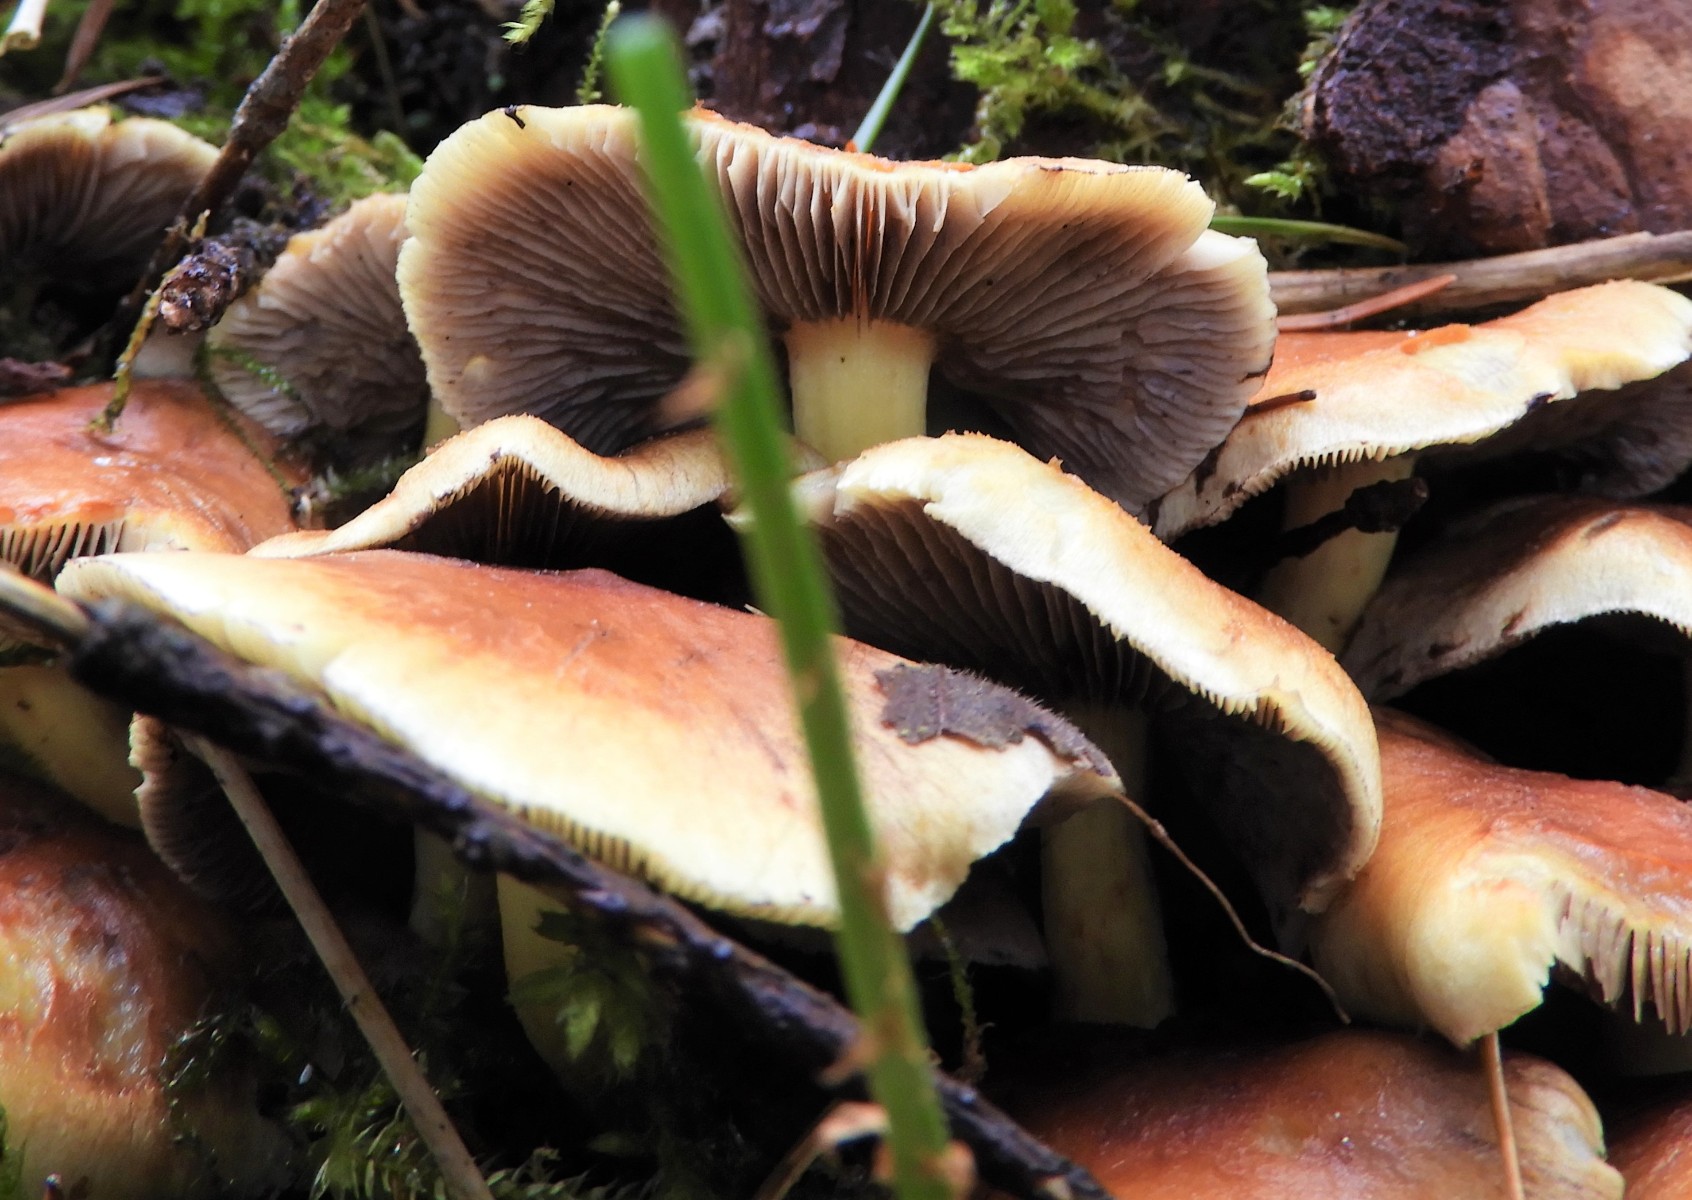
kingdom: Fungi
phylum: Basidiomycota
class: Agaricomycetes
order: Agaricales
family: Strophariaceae
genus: Hypholoma
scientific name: Hypholoma lateritium
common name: teglrød svovlhat
